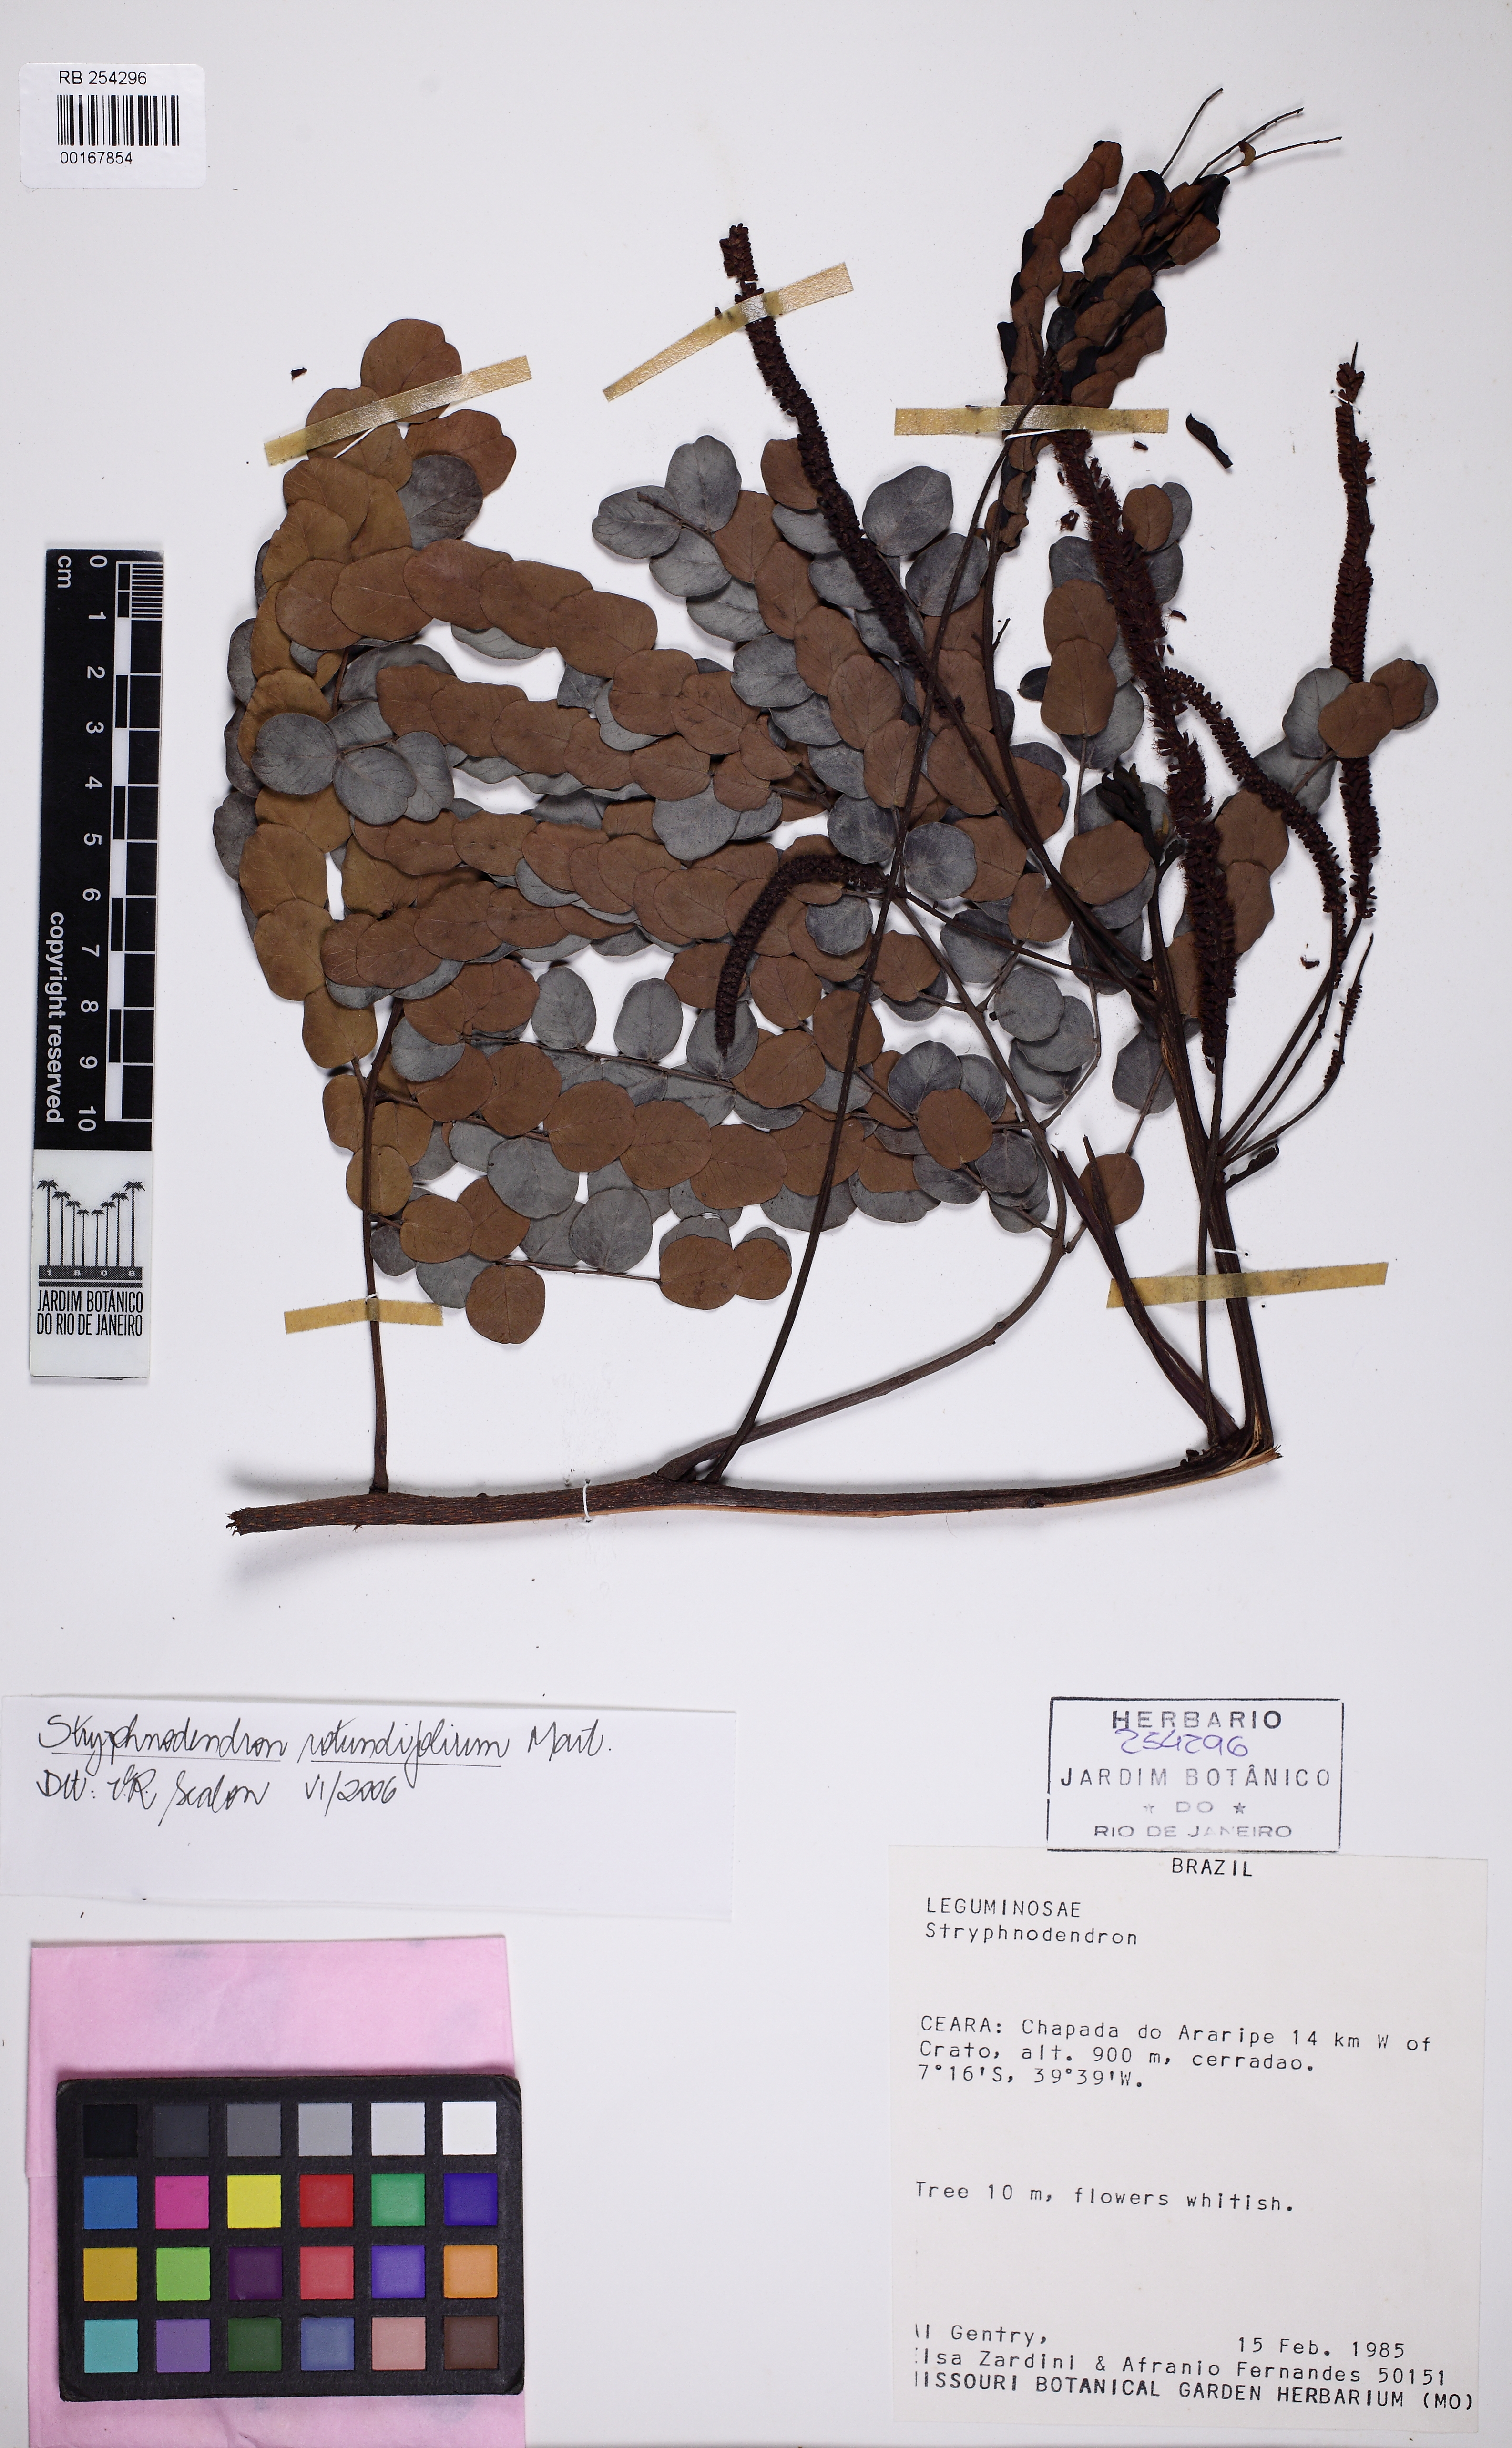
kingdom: Plantae
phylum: Tracheophyta
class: Magnoliopsida
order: Fabales
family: Fabaceae
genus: Stryphnodendron
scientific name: Stryphnodendron rotundifolium
